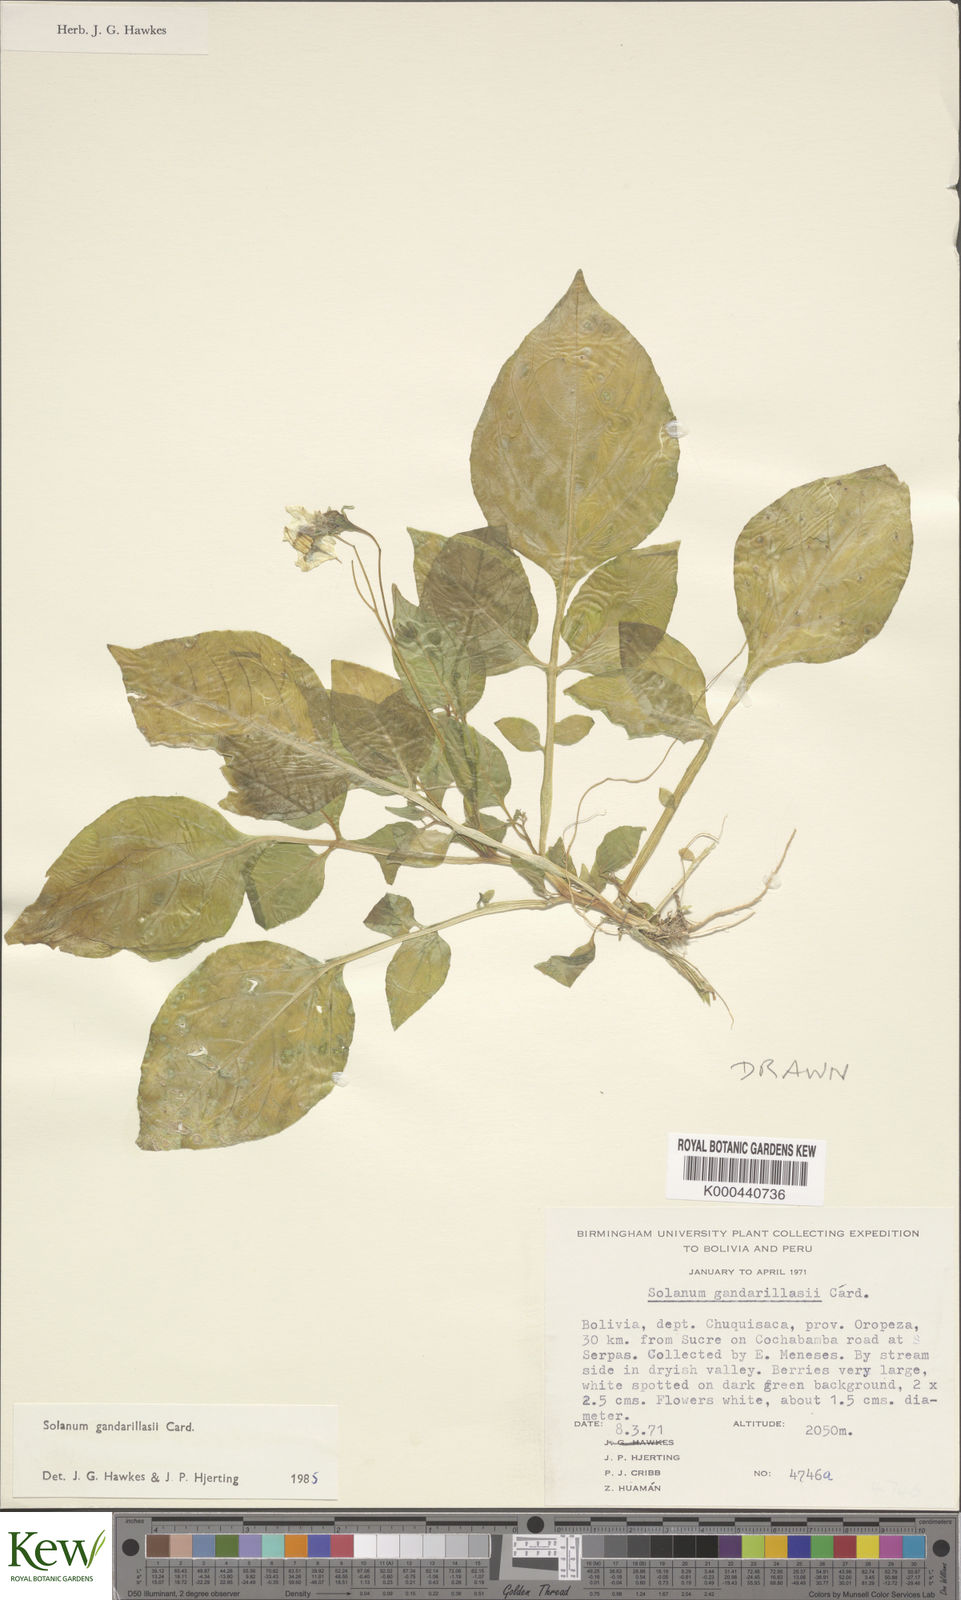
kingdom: Plantae
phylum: Tracheophyta
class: Magnoliopsida
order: Solanales
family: Solanaceae
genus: Solanum
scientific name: Solanum
